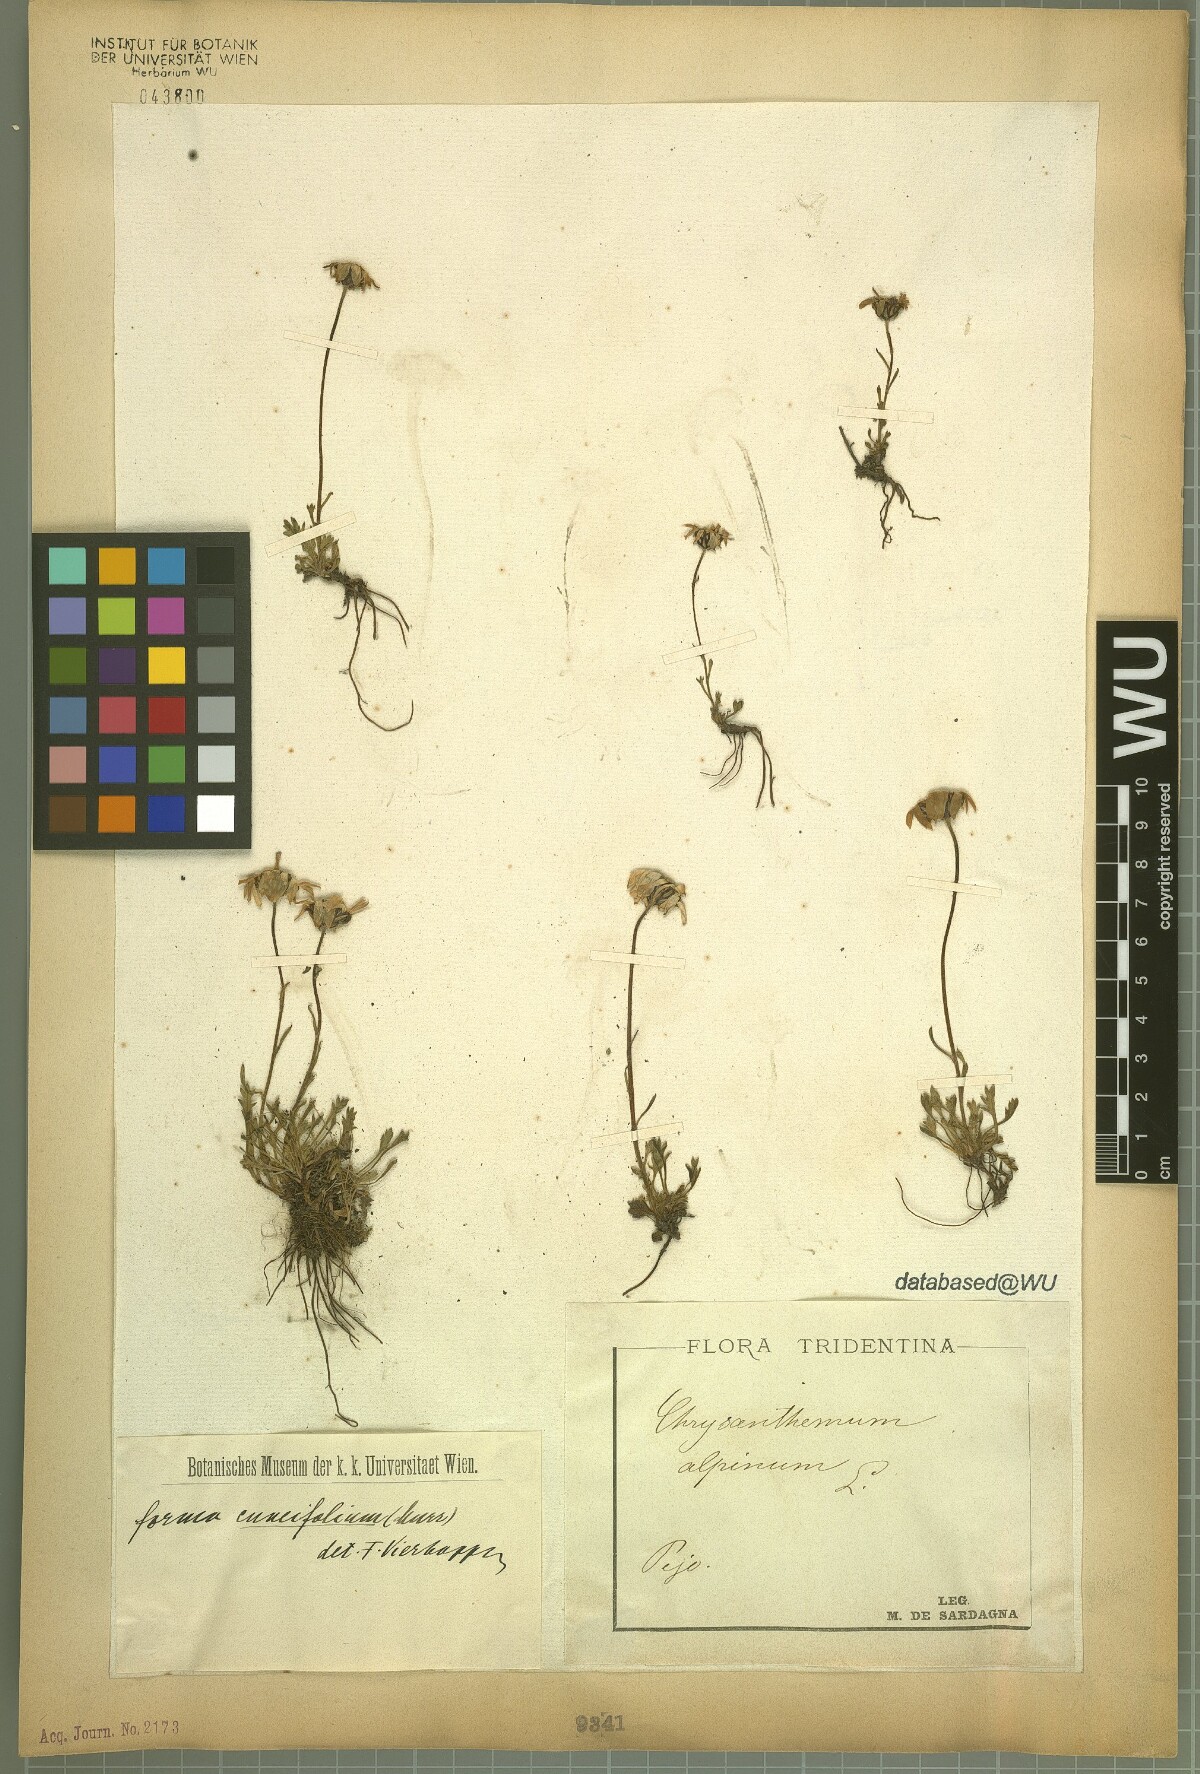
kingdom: Plantae
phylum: Tracheophyta
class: Magnoliopsida
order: Asterales
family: Asteraceae
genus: Leucanthemopsis
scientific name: Leucanthemopsis alpina
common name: Alpine moon daisy
